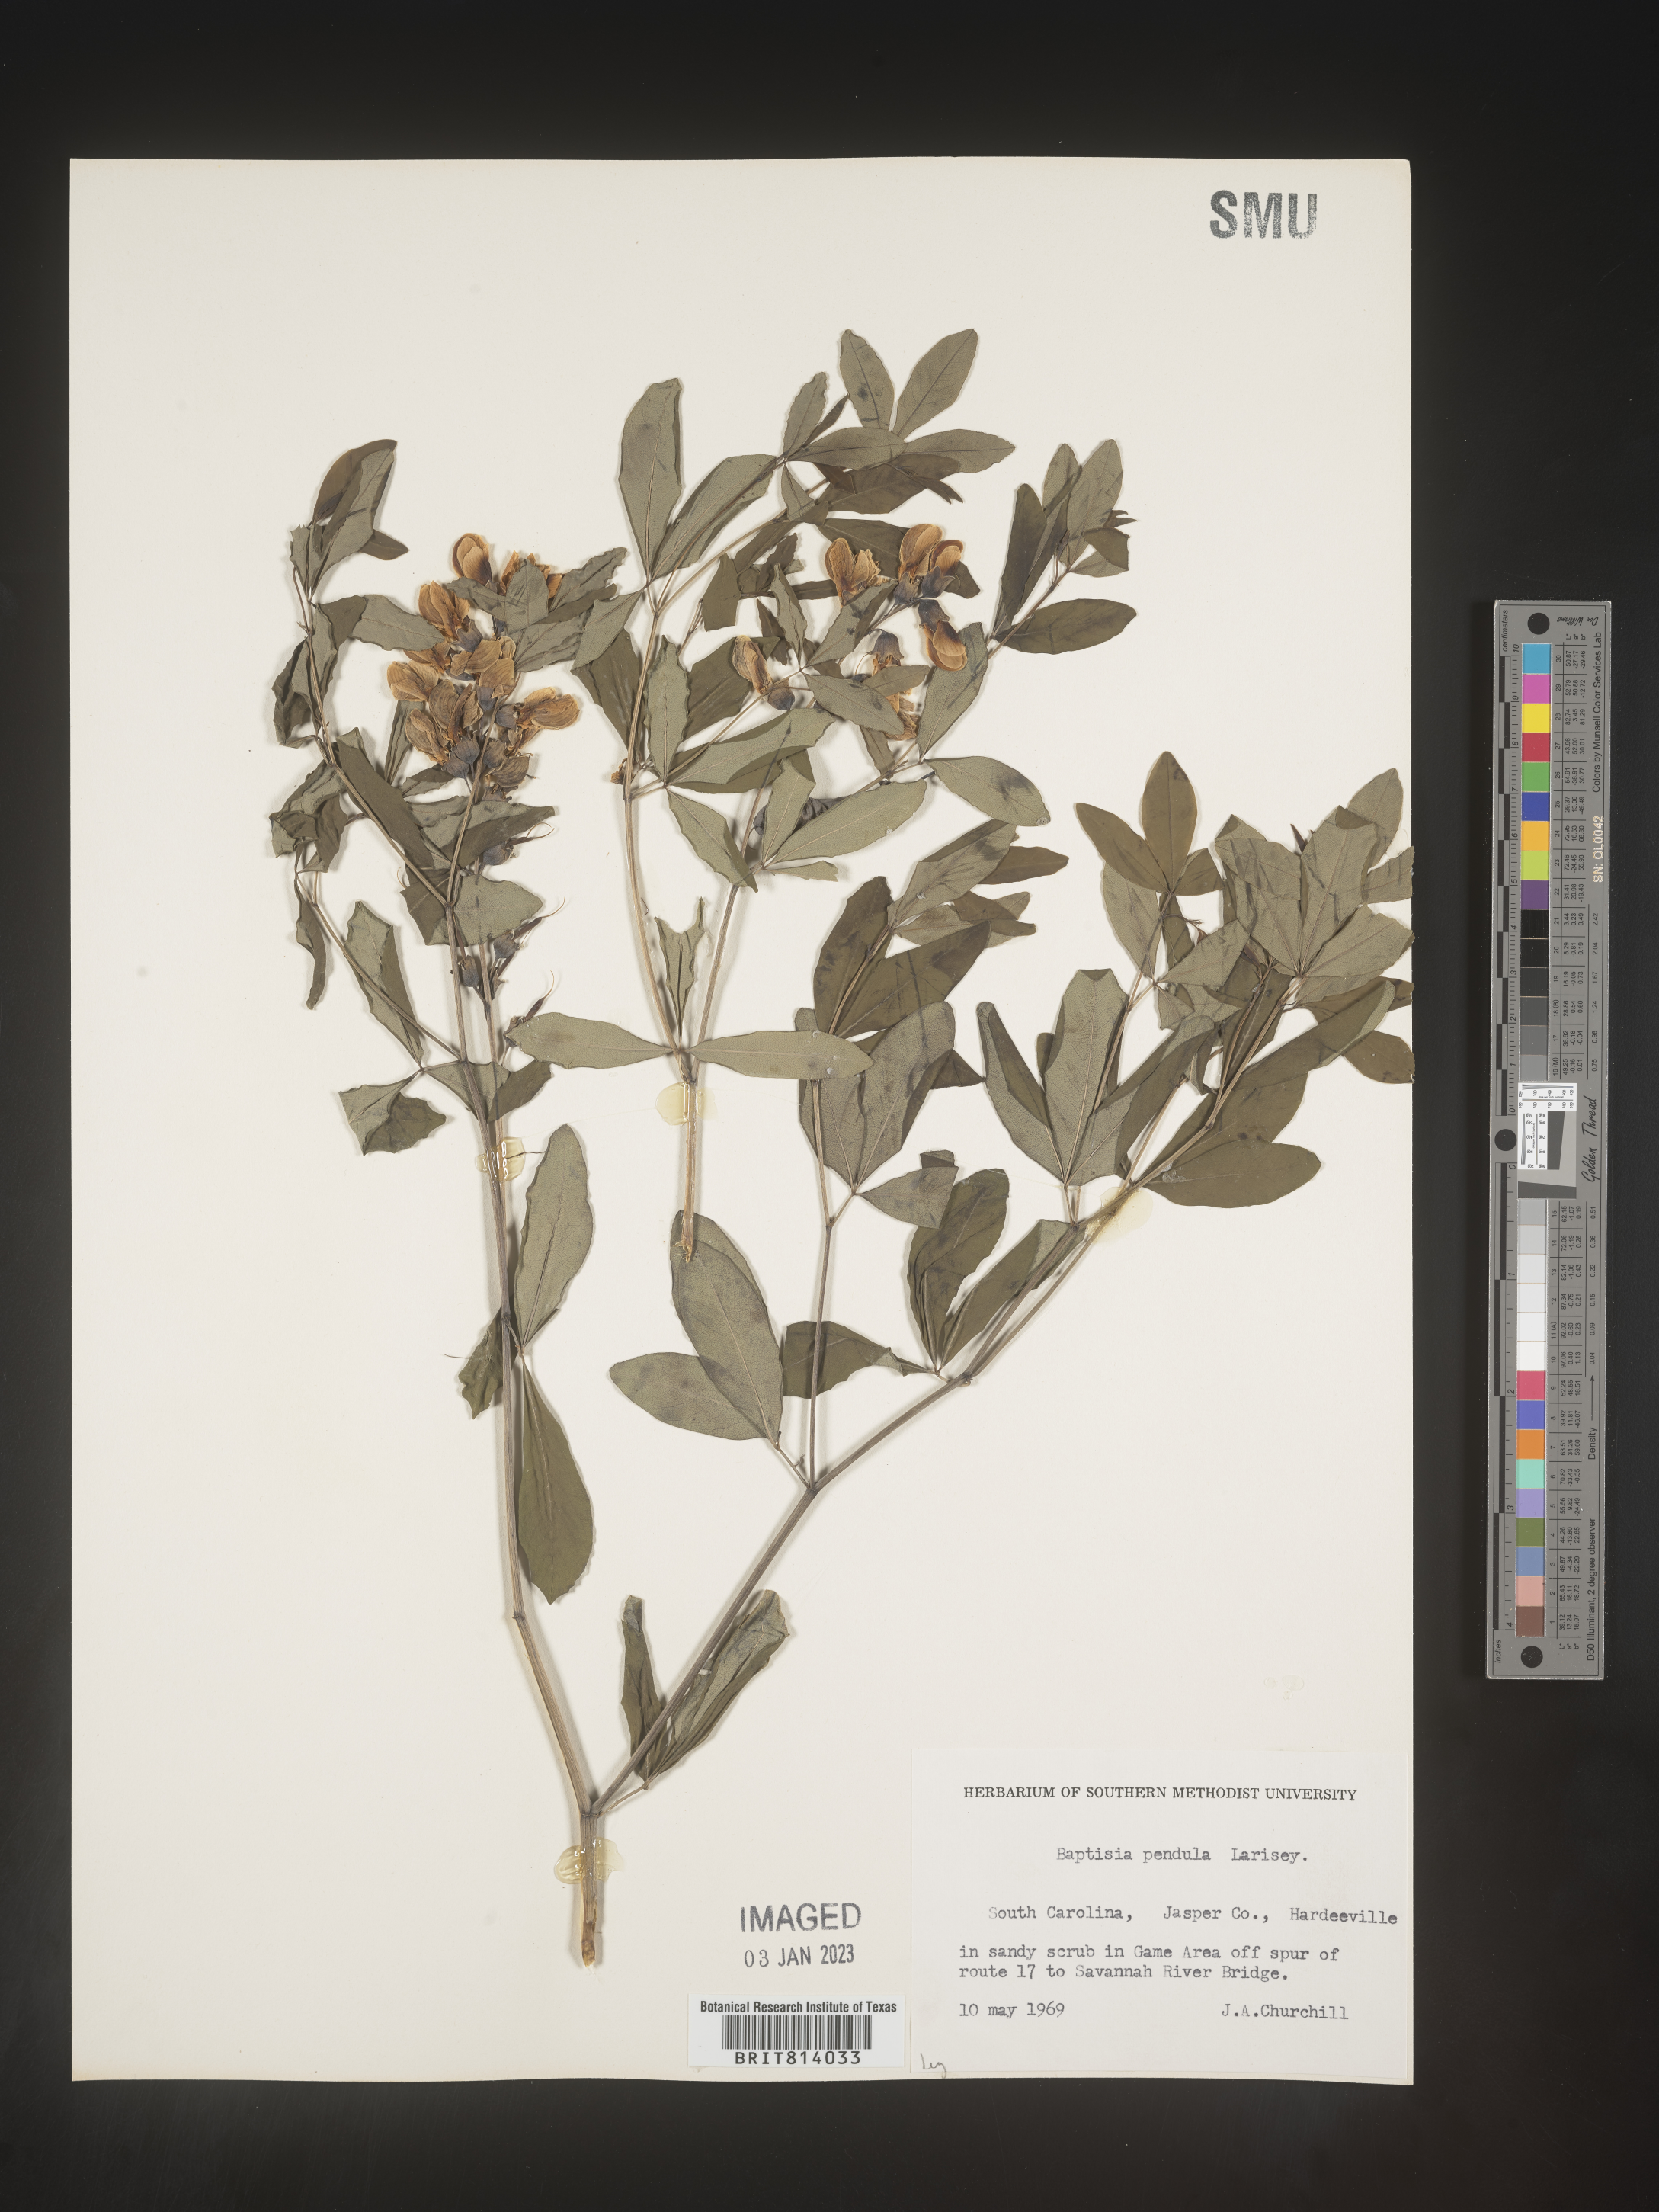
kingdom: Plantae
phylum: Tracheophyta
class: Magnoliopsida
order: Fabales
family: Fabaceae
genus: Baptisia
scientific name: Baptisia alba
